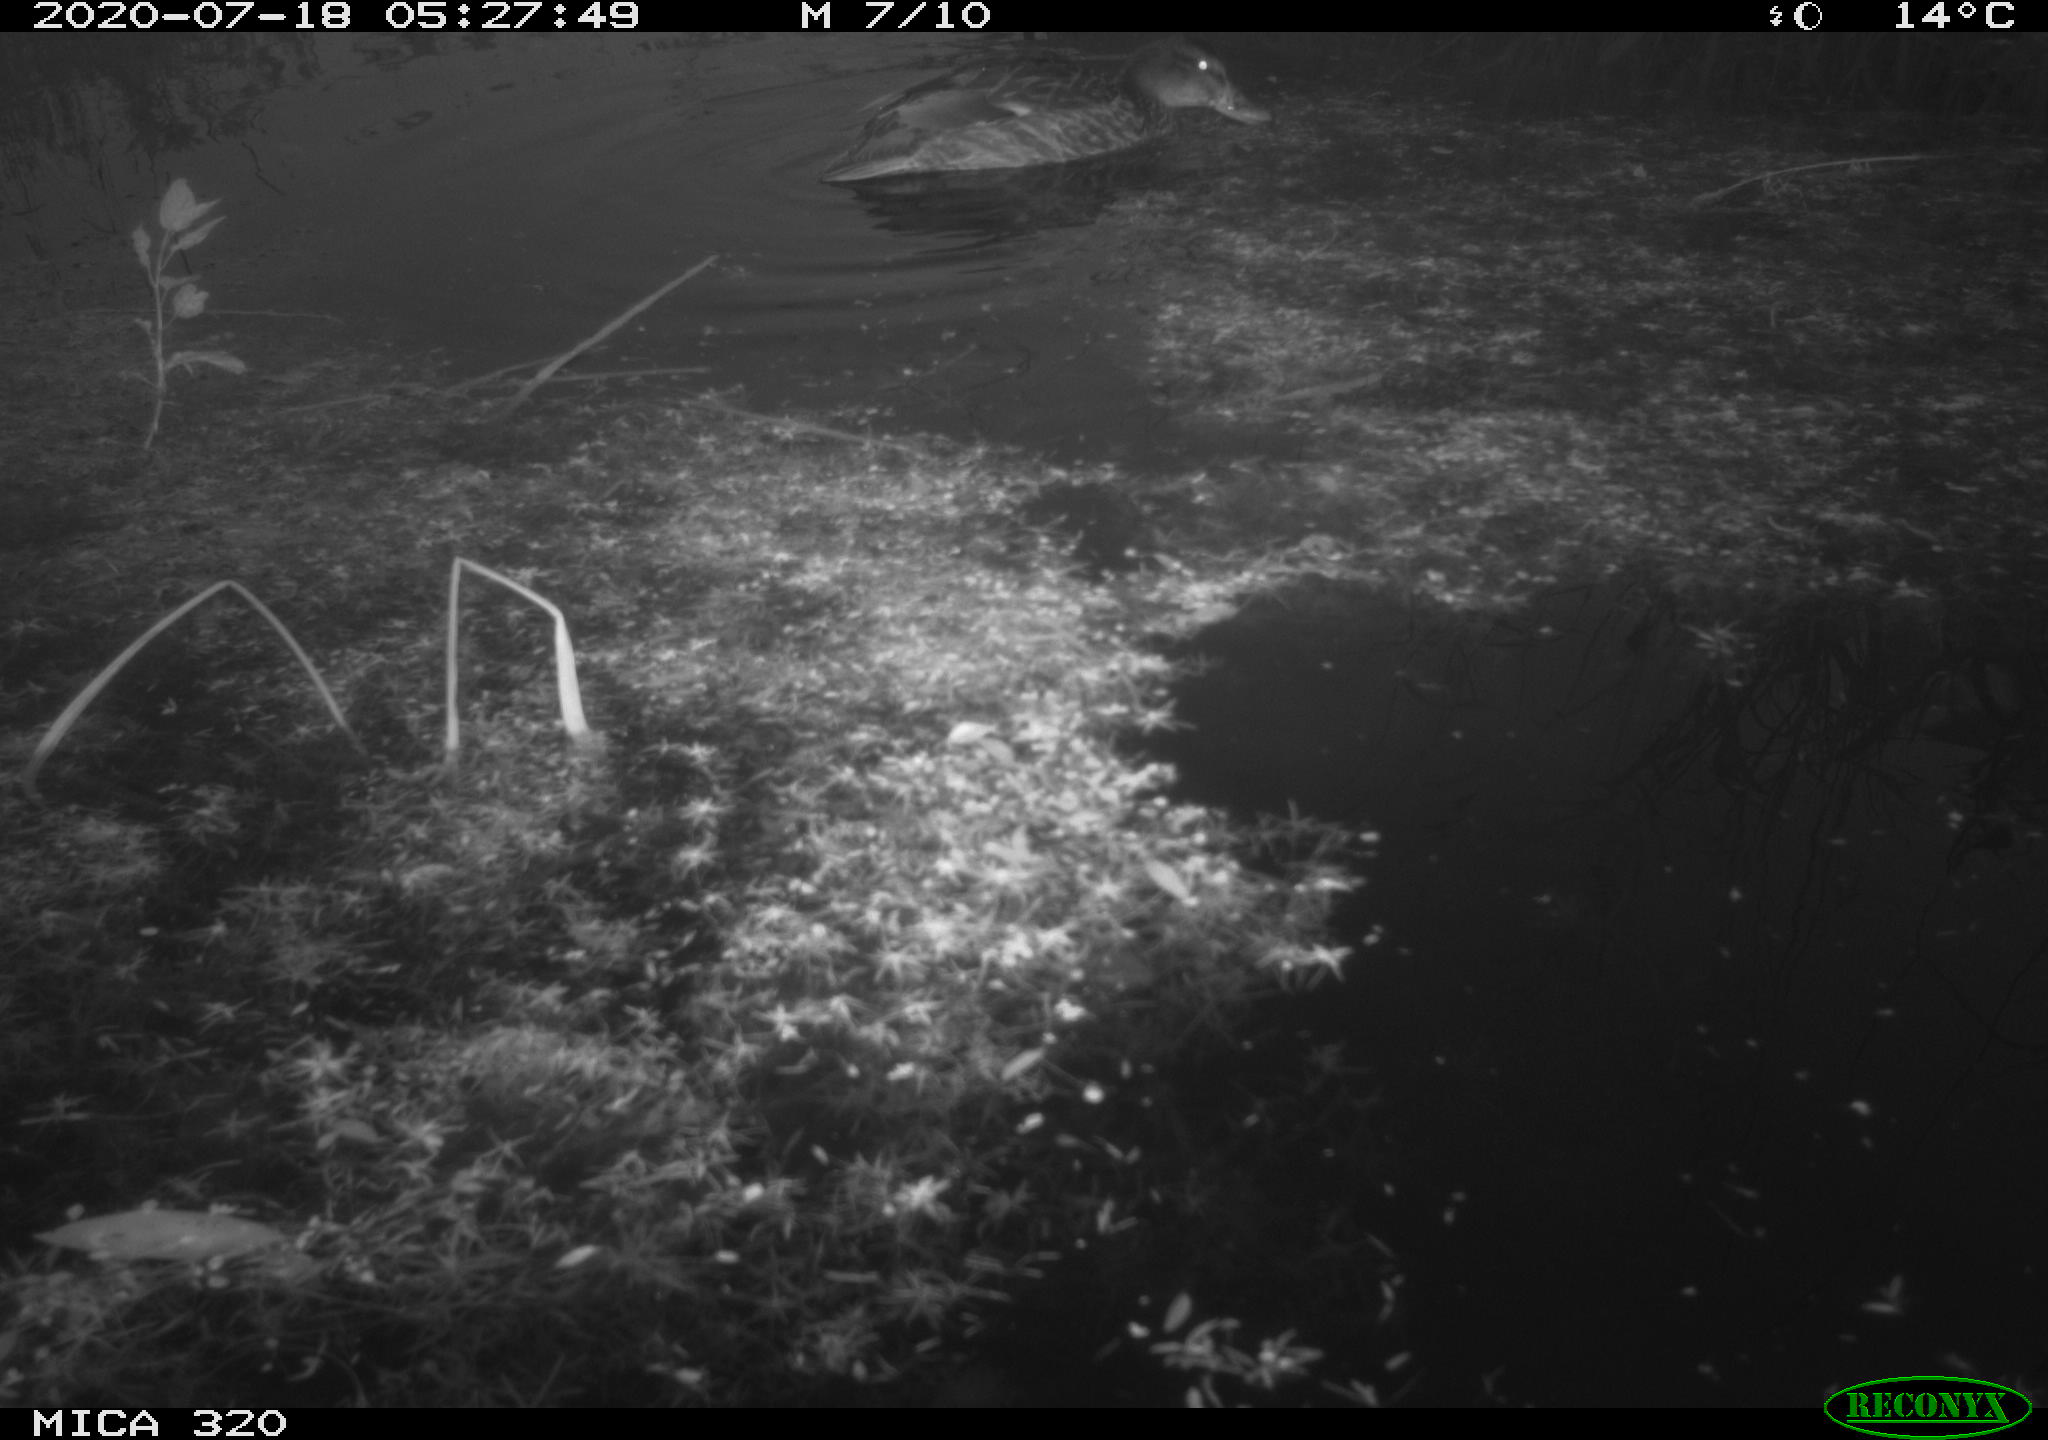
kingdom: Animalia
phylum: Chordata
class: Aves
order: Anseriformes
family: Anatidae
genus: Anas
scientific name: Anas platyrhynchos
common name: Mallard
